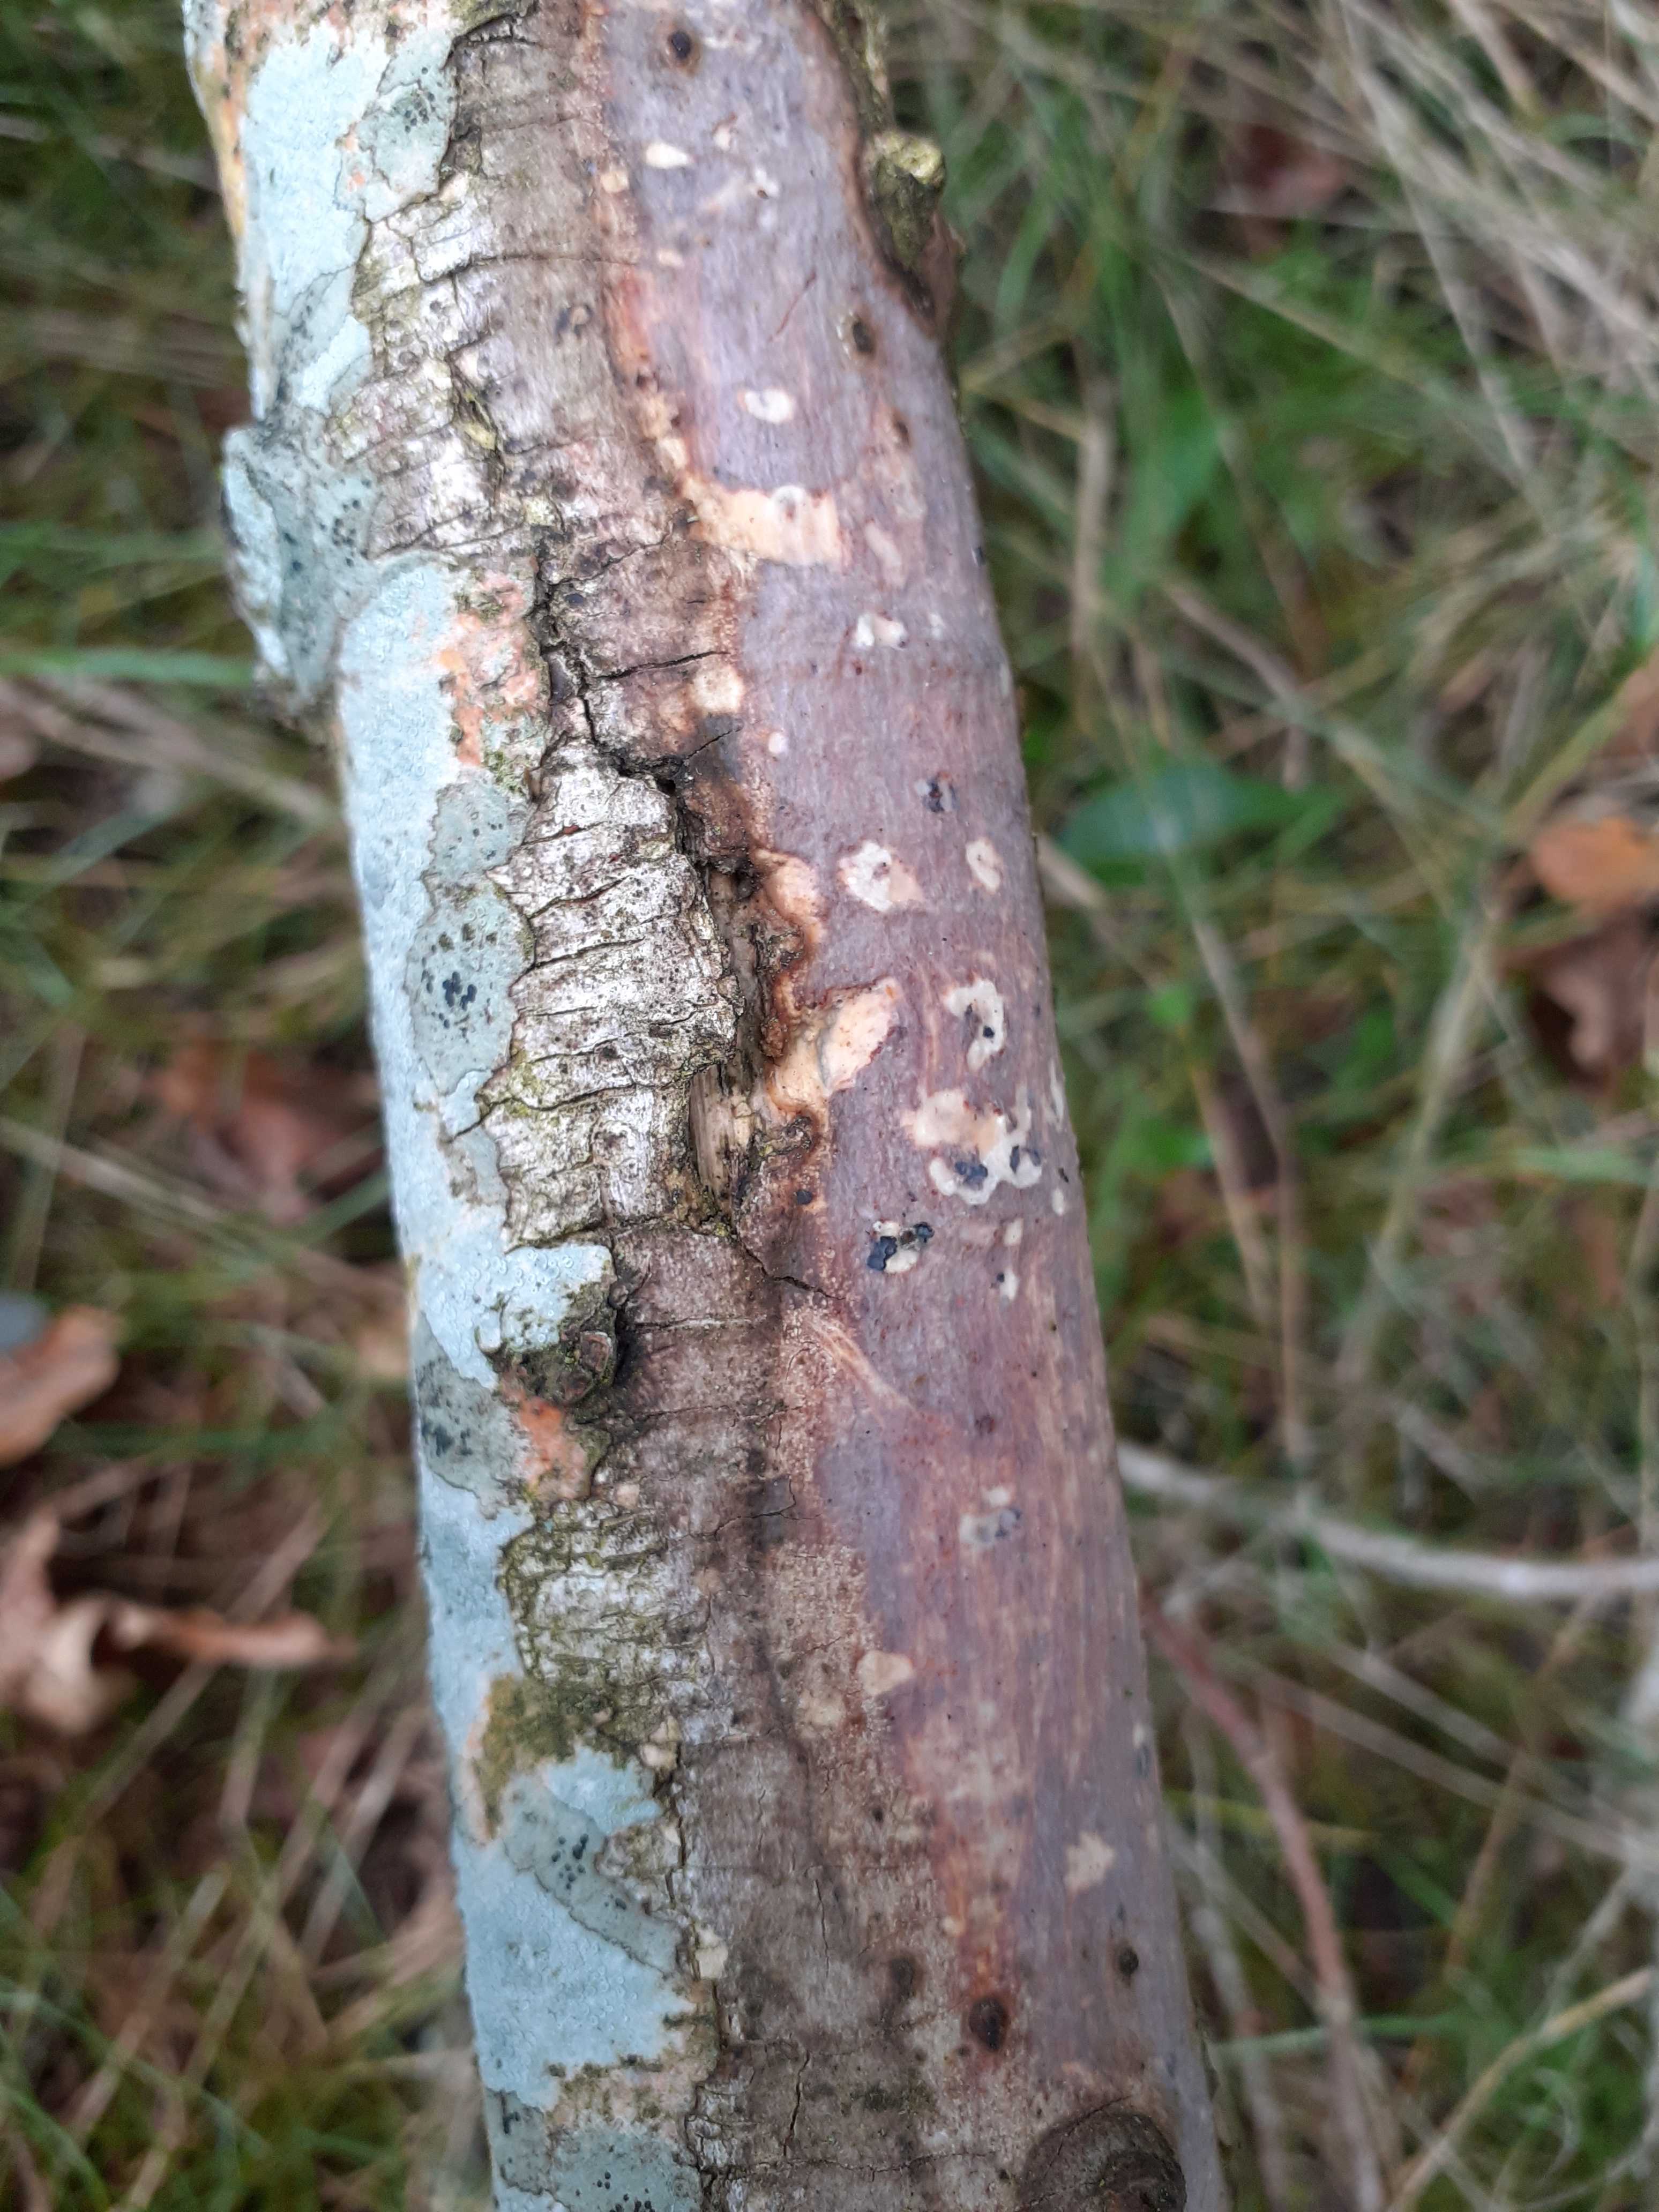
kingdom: Fungi
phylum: Basidiomycota
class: Agaricomycetes
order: Corticiales
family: Vuilleminiaceae
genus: Vuilleminia
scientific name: Vuilleminia comedens
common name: almindelig barksprænger
